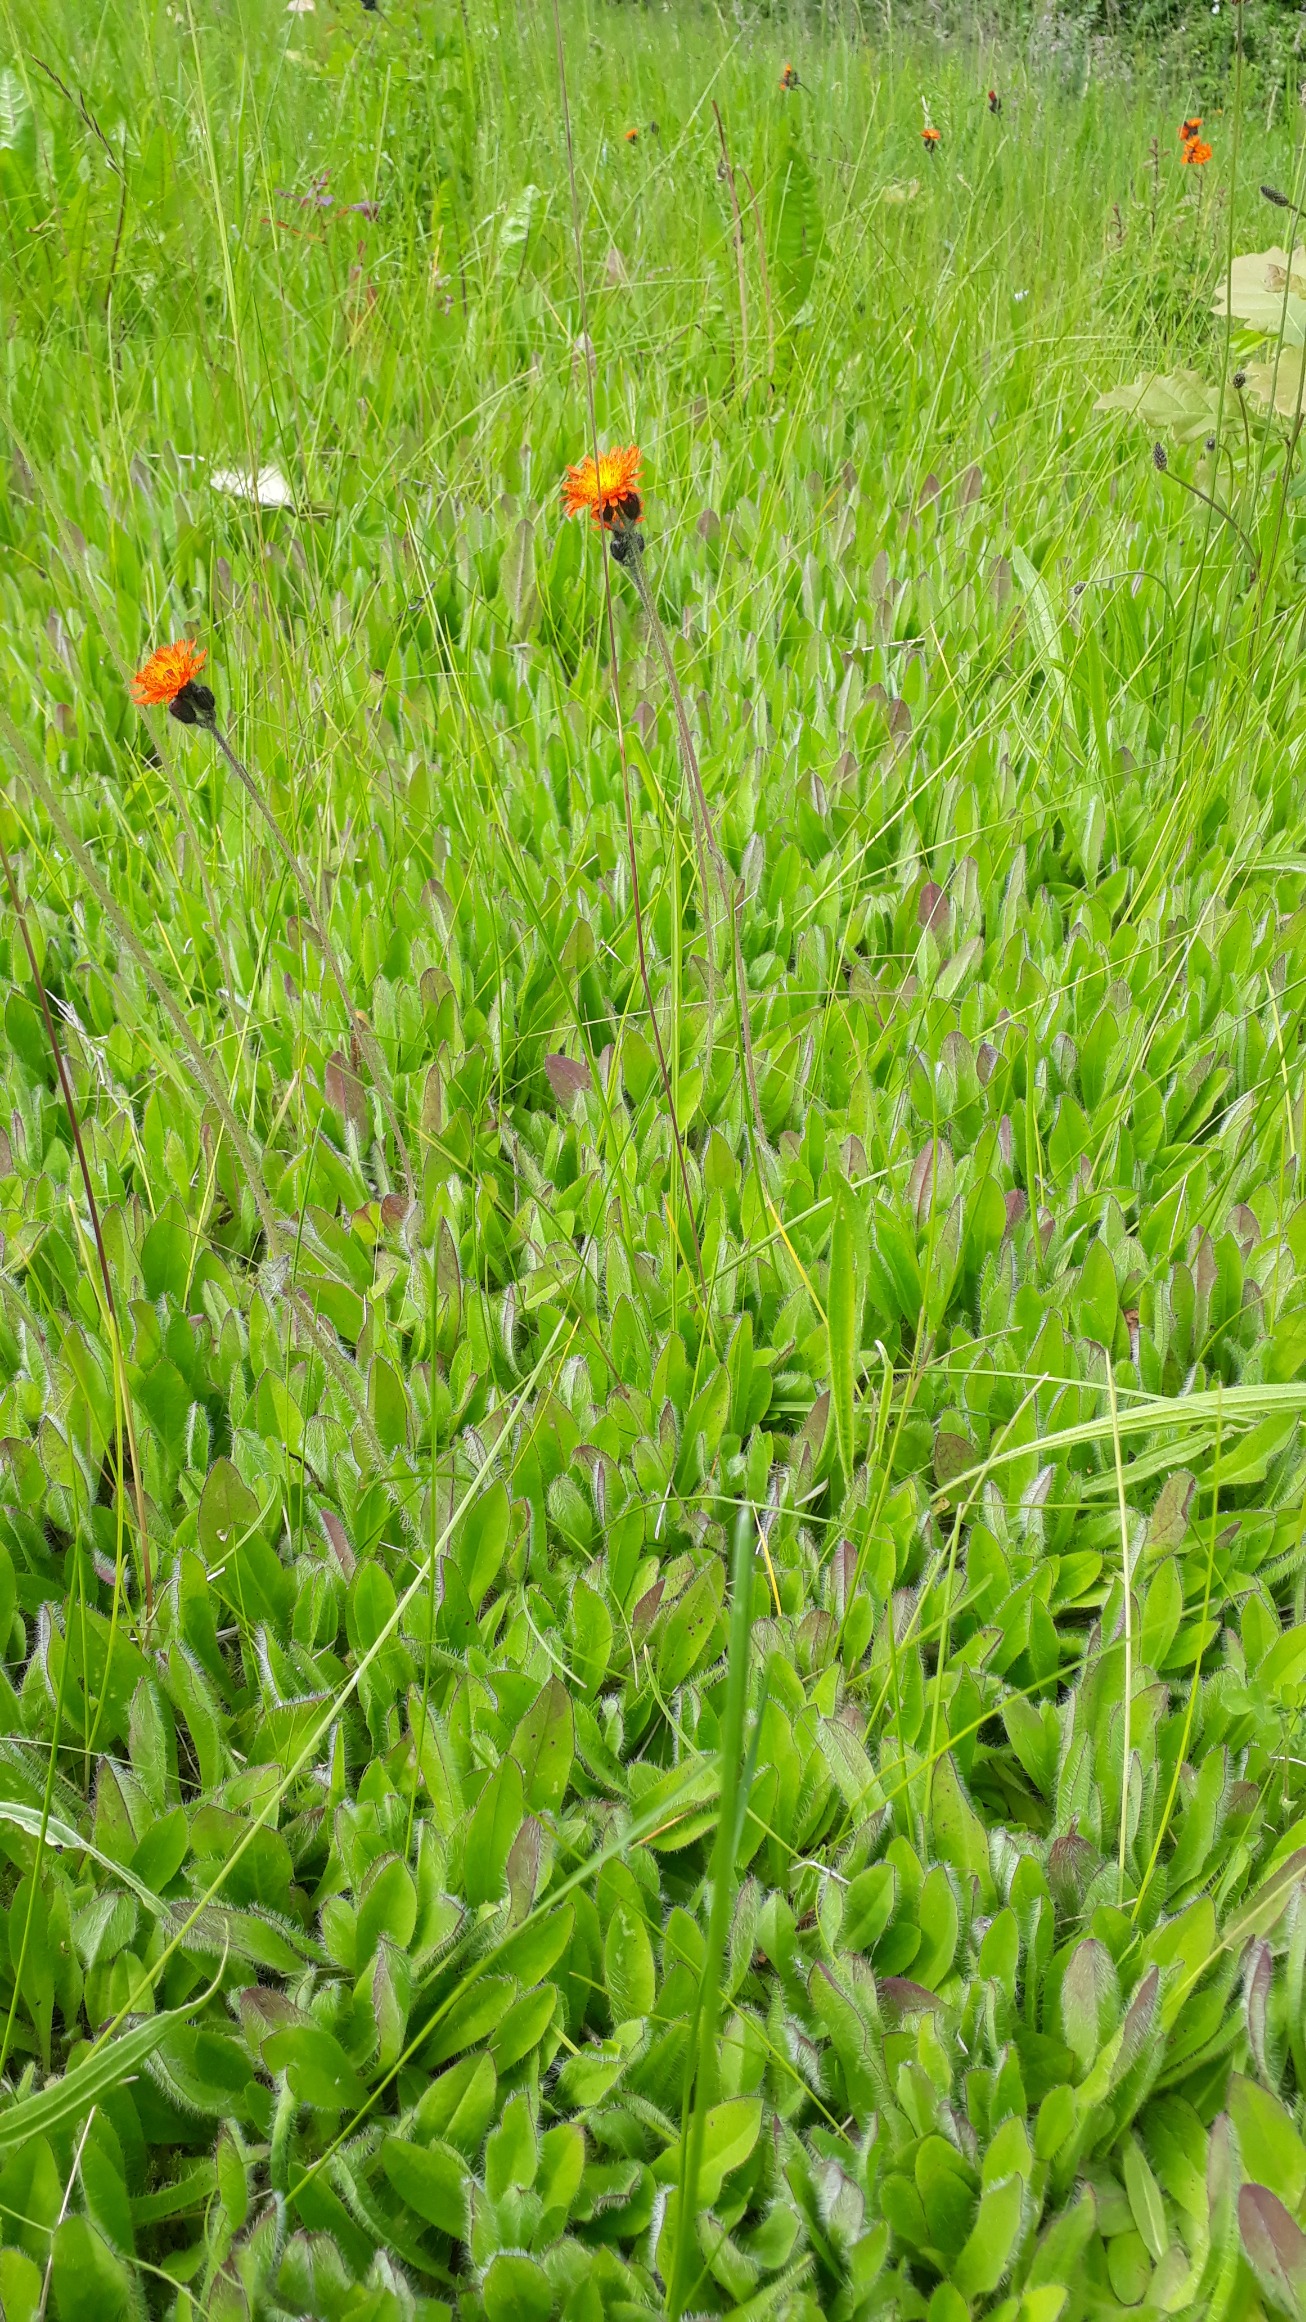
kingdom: Plantae
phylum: Tracheophyta
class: Magnoliopsida
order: Asterales
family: Asteraceae
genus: Pilosella
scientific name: Pilosella aurantiaca
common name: Pomerans-høgeurt
